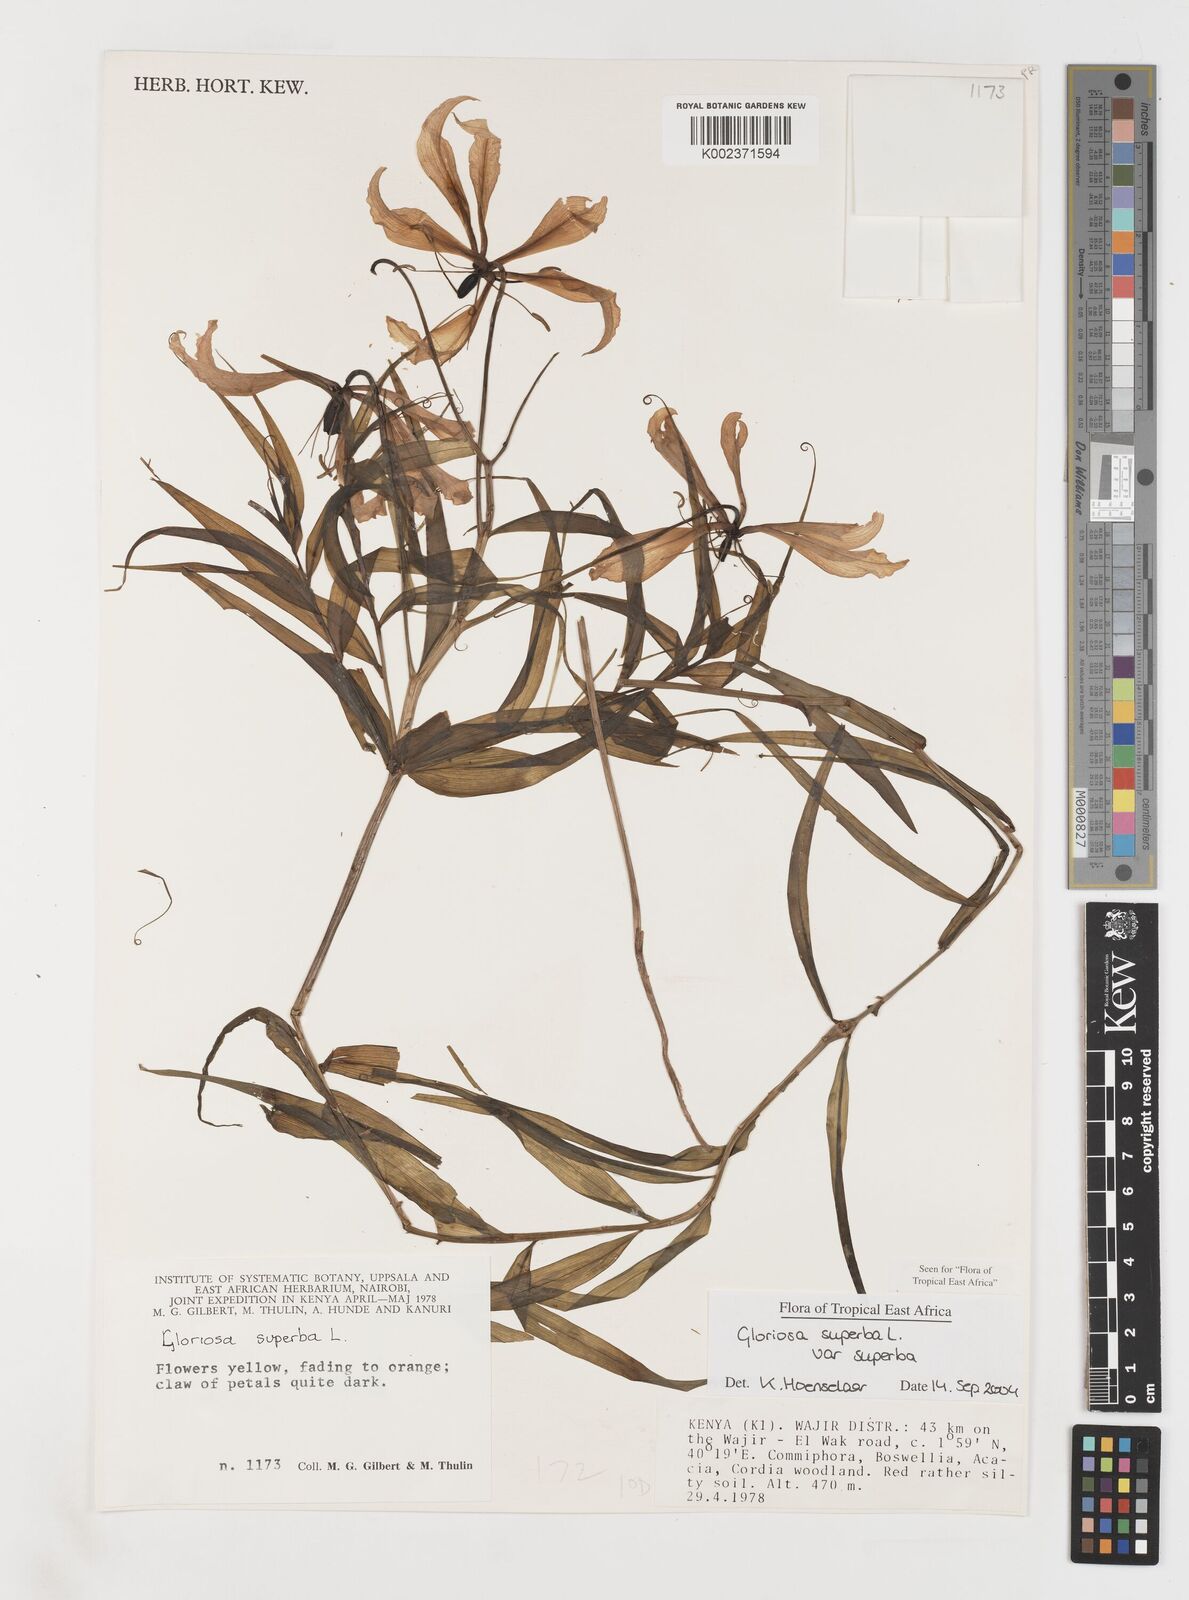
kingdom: Plantae
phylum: Tracheophyta
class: Liliopsida
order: Liliales
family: Colchicaceae
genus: Gloriosa
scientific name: Gloriosa simplex
